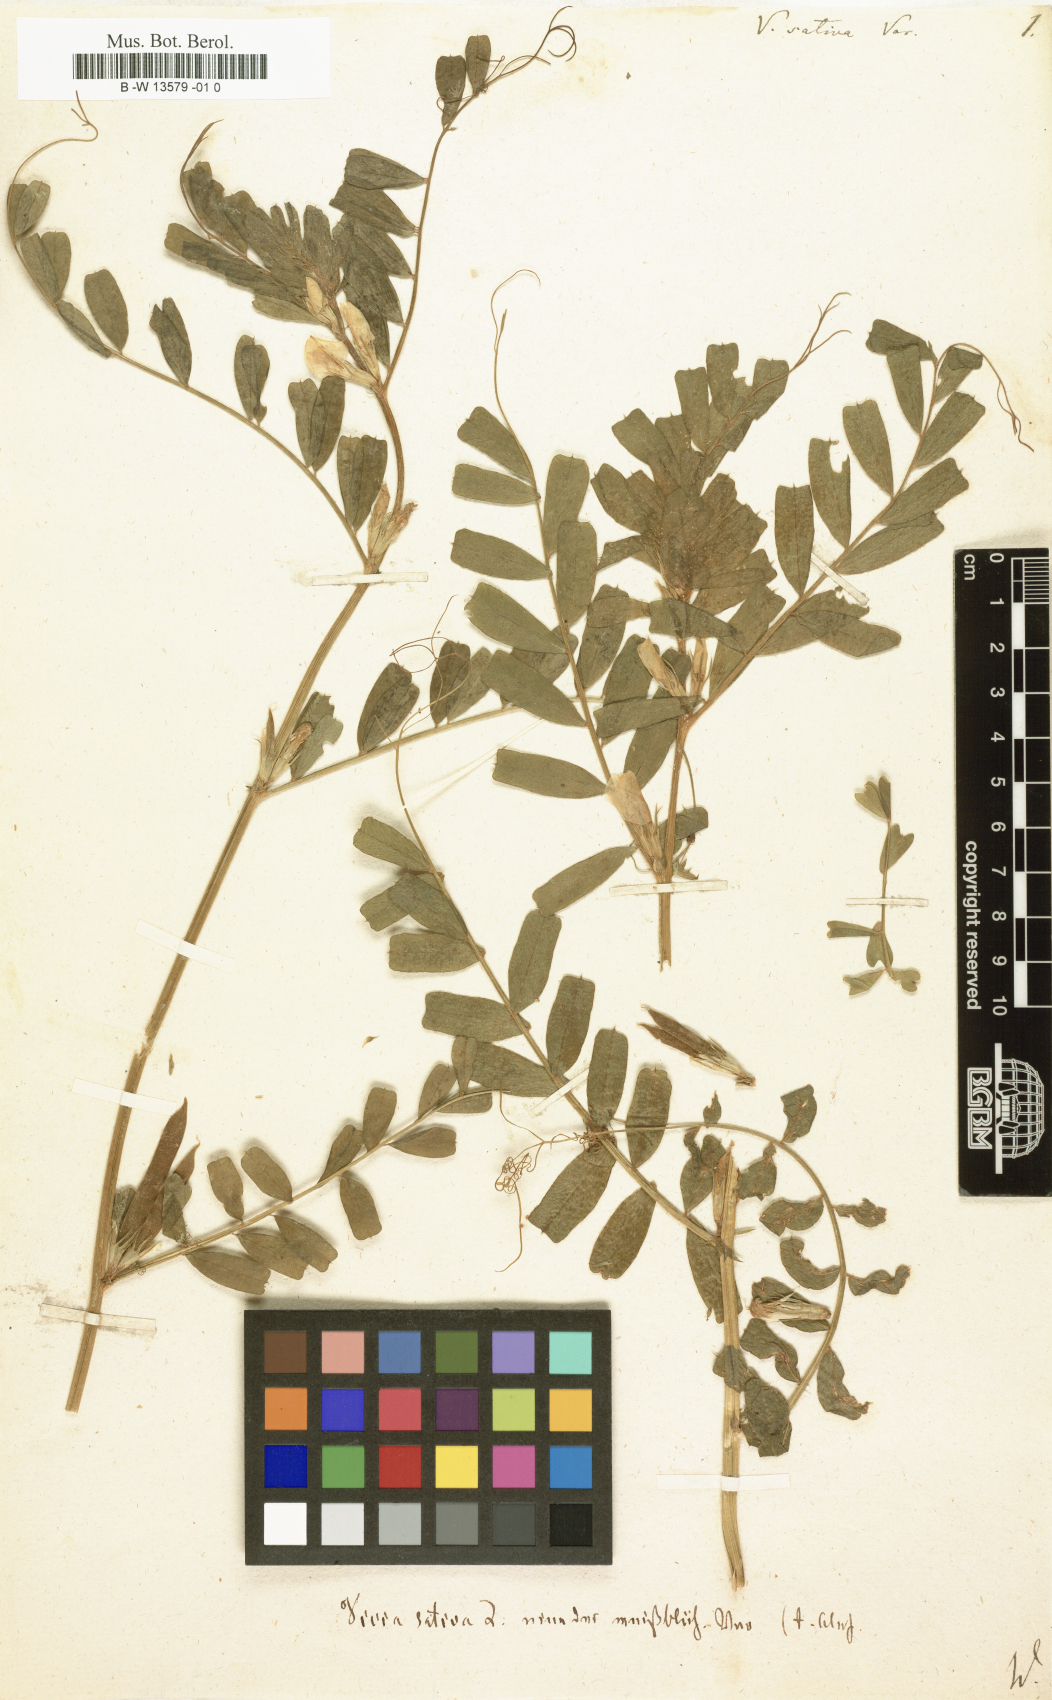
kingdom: Plantae
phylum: Tracheophyta
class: Magnoliopsida
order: Fabales
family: Fabaceae
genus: Vicia
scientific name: Vicia sativa
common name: Garden vetch
